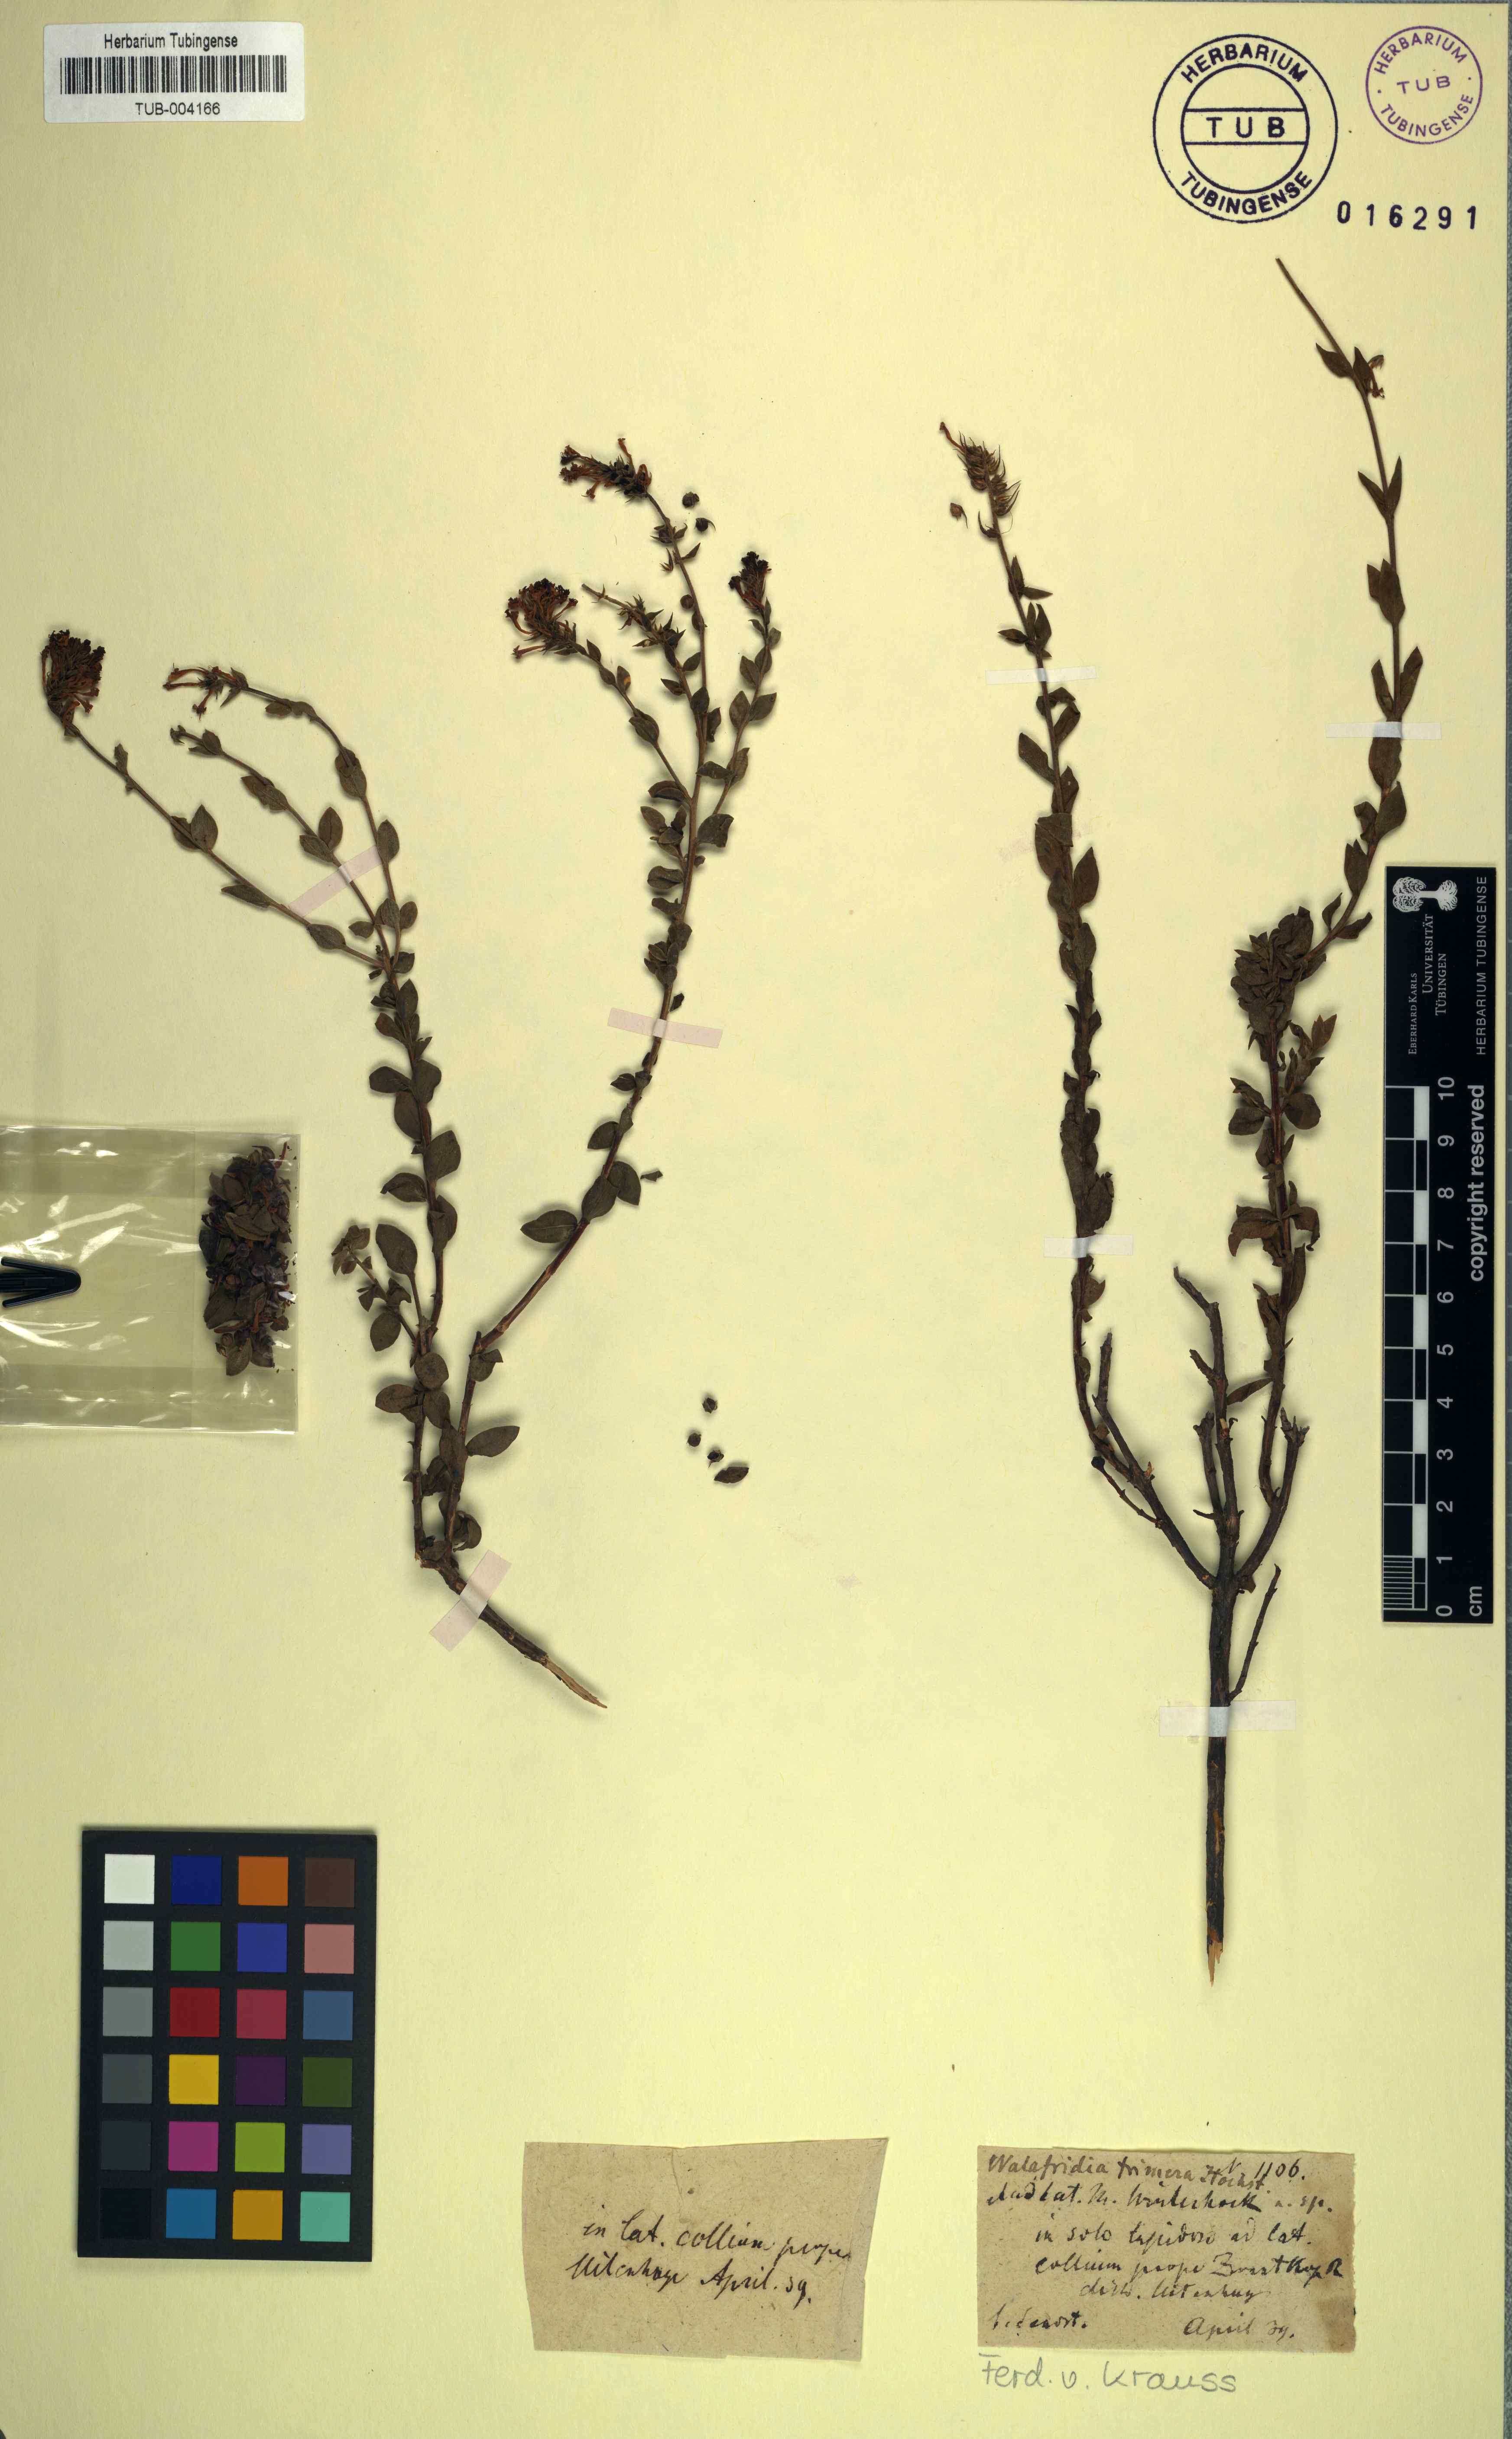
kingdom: Plantae
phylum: Tracheophyta
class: Magnoliopsida
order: Lamiales
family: Scrophulariaceae
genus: Selago
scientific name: Selago myrtifolia
